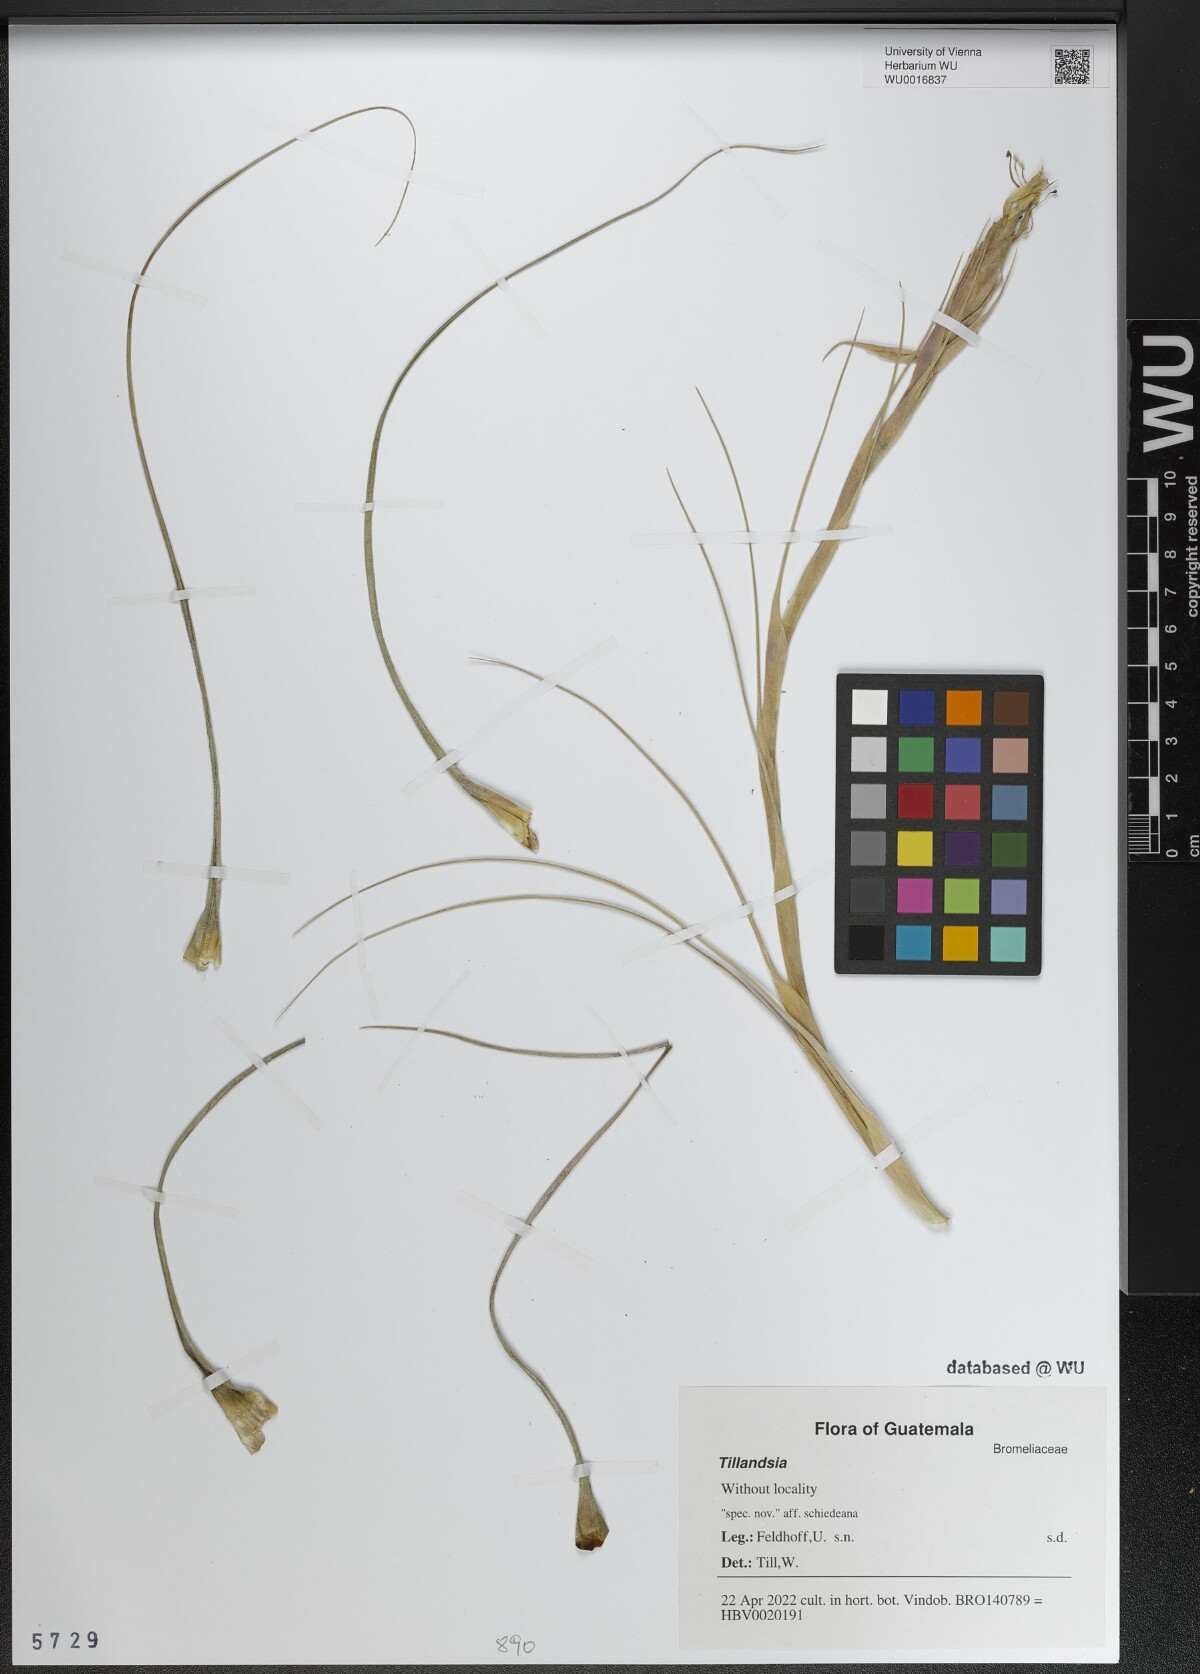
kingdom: Plantae
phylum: Tracheophyta
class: Liliopsida
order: Poales
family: Bromeliaceae
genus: Tillandsia
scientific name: Tillandsia
